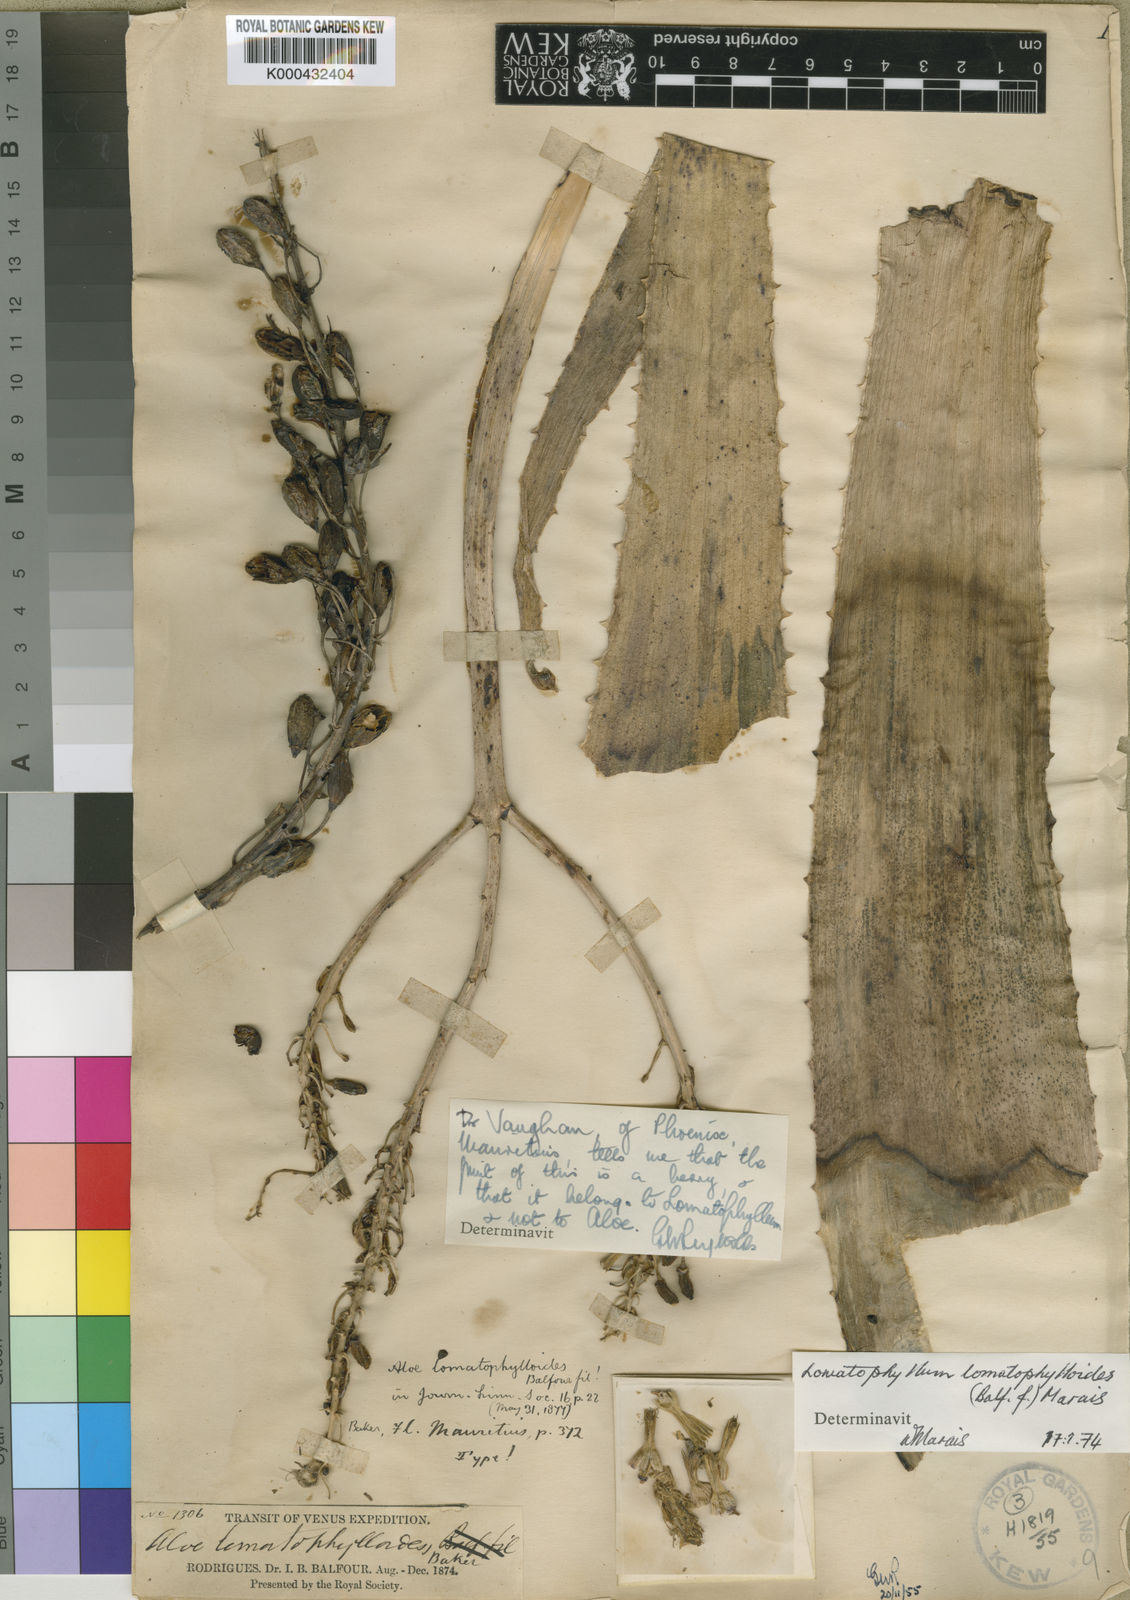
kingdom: Plantae
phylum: Tracheophyta
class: Liliopsida
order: Asparagales
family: Asphodelaceae
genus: Aloe
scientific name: Aloe lomatophylloides
